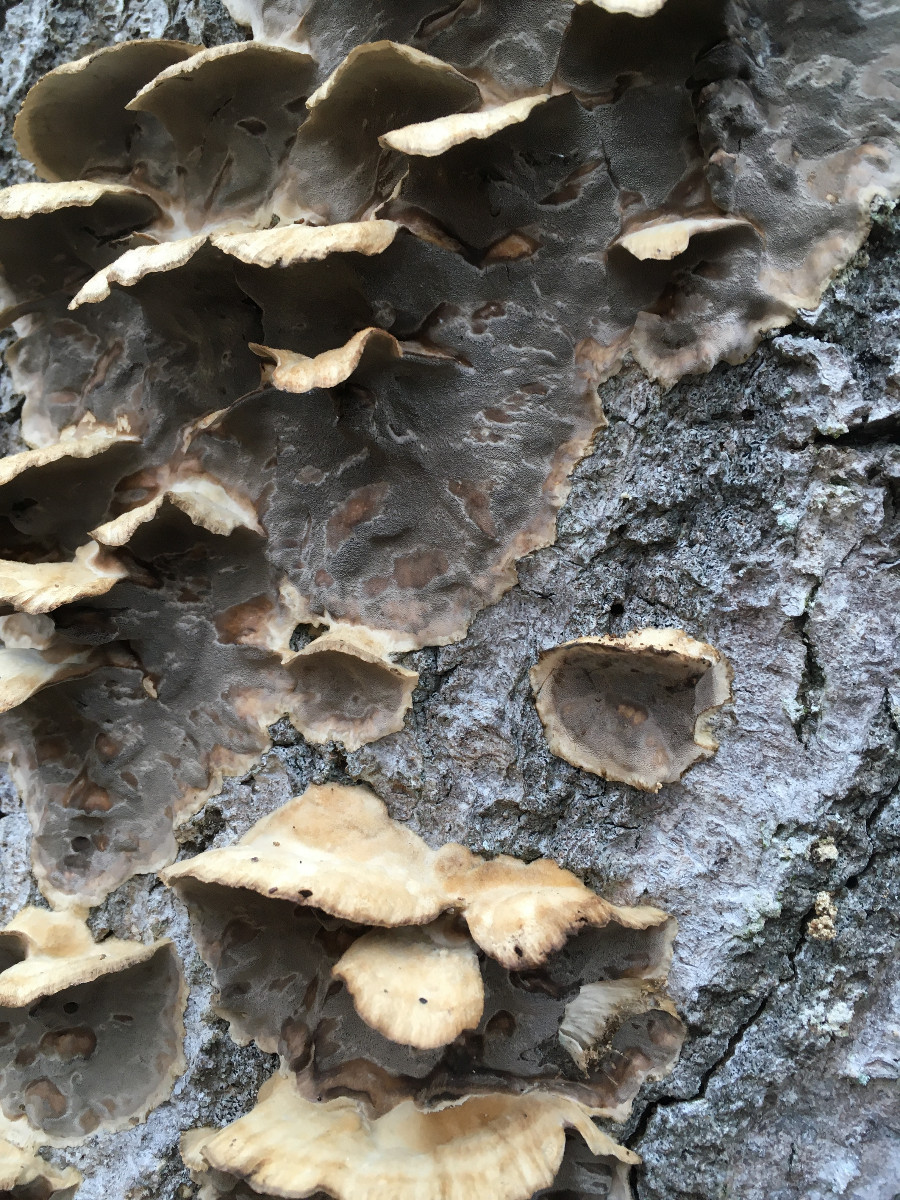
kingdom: Fungi
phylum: Basidiomycota
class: Agaricomycetes
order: Polyporales
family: Phanerochaetaceae
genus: Bjerkandera
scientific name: Bjerkandera adusta
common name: sveden sodporesvamp
